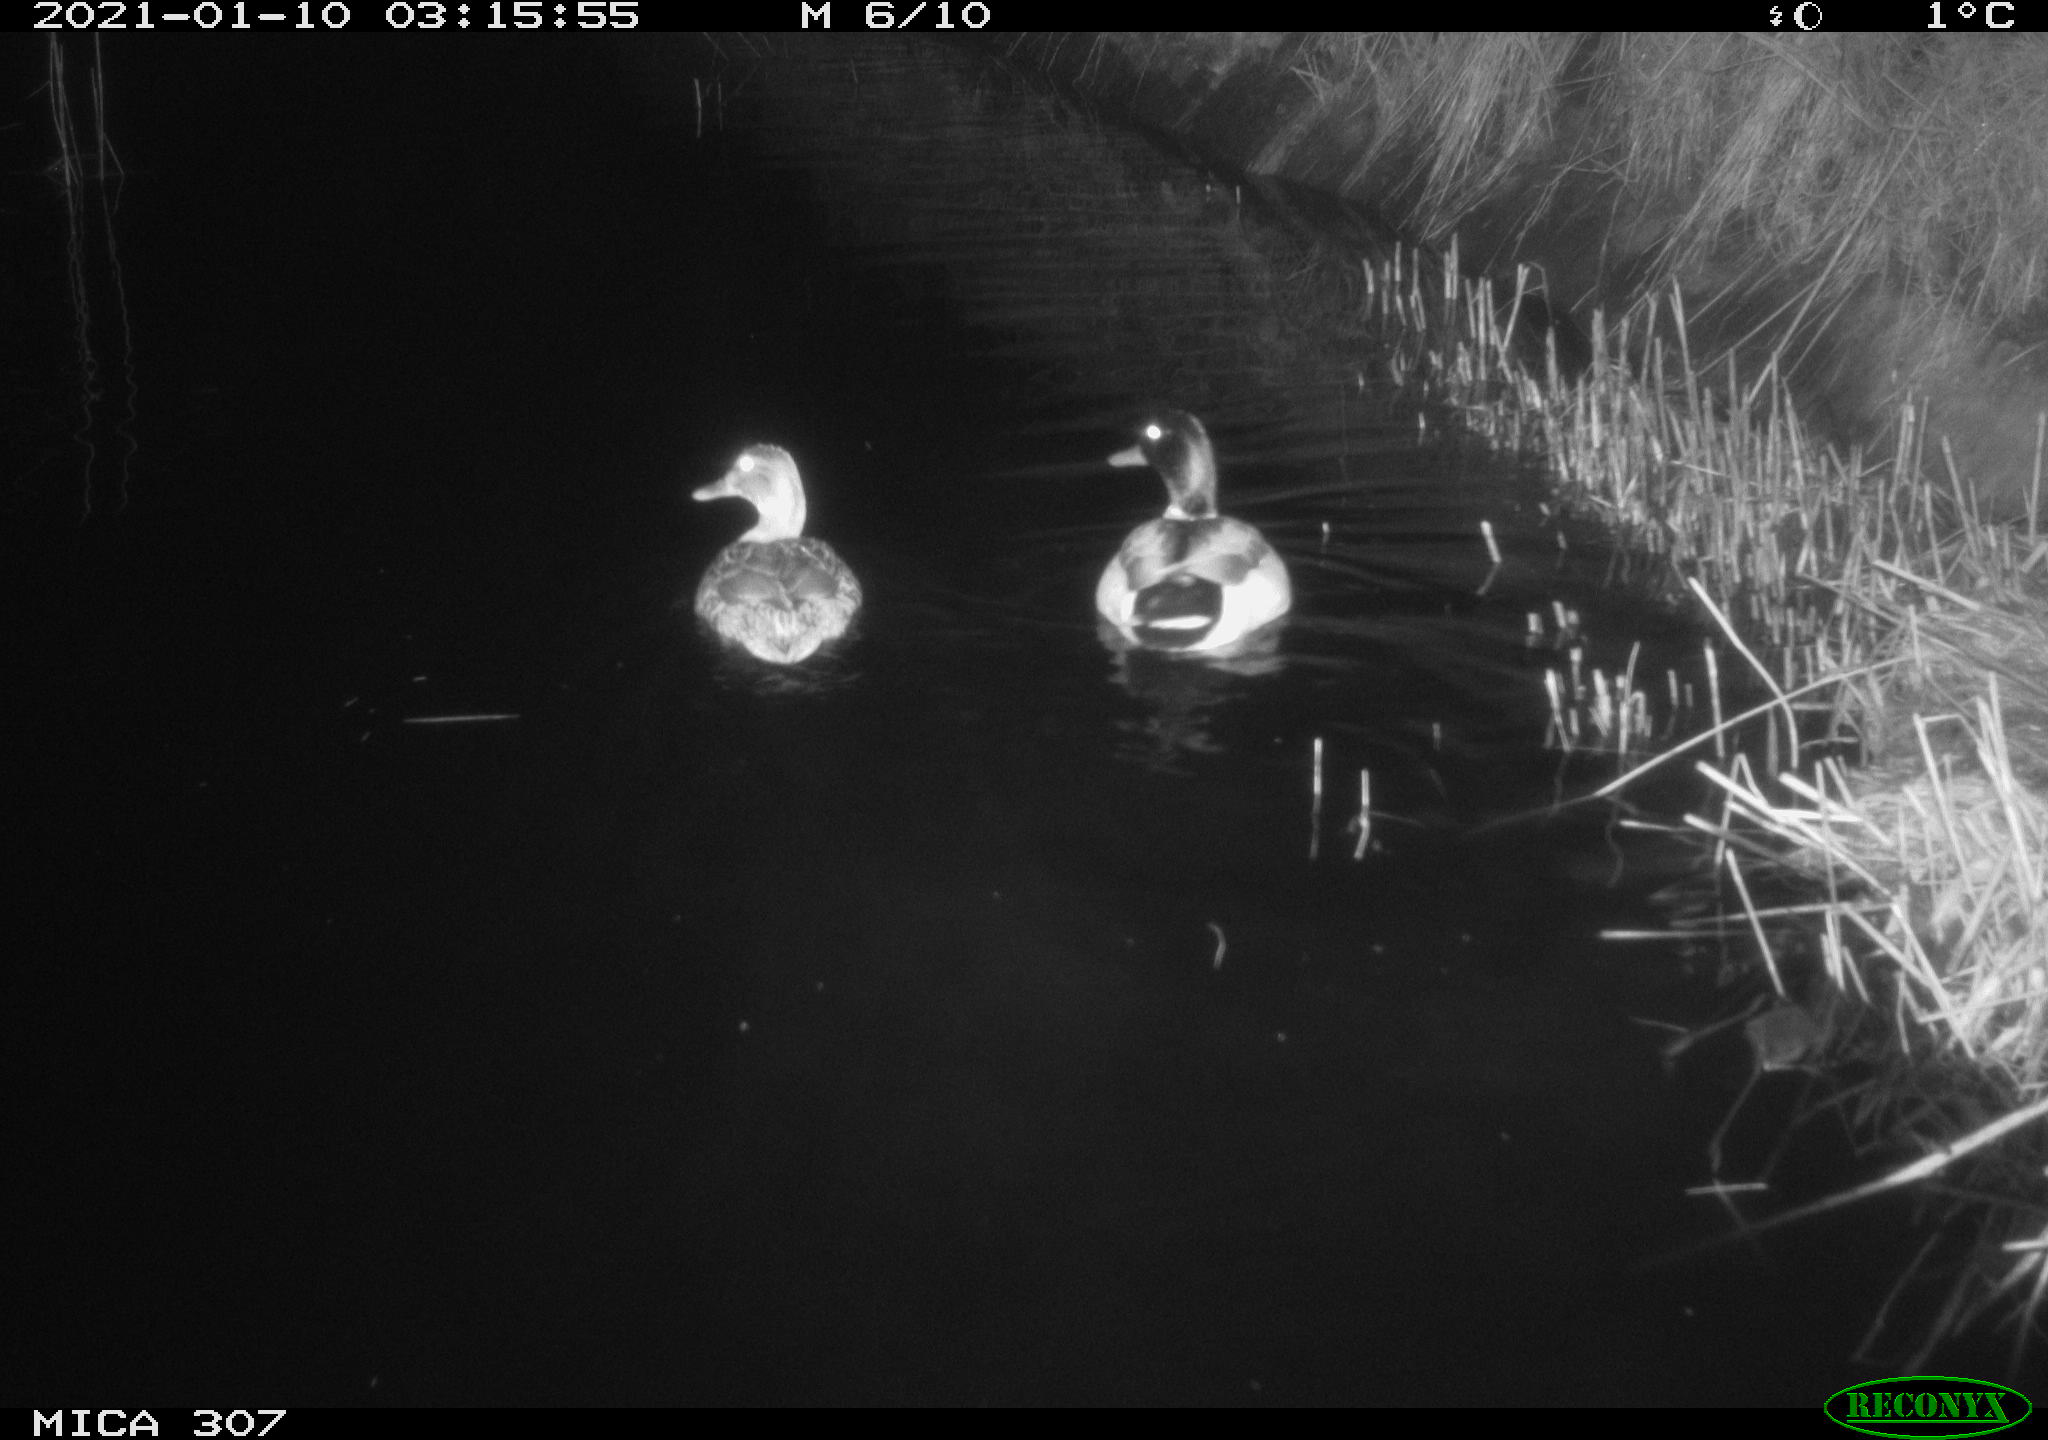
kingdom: Animalia
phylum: Chordata
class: Aves
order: Anseriformes
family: Anatidae
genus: Anas
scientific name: Anas platyrhynchos
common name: Mallard
